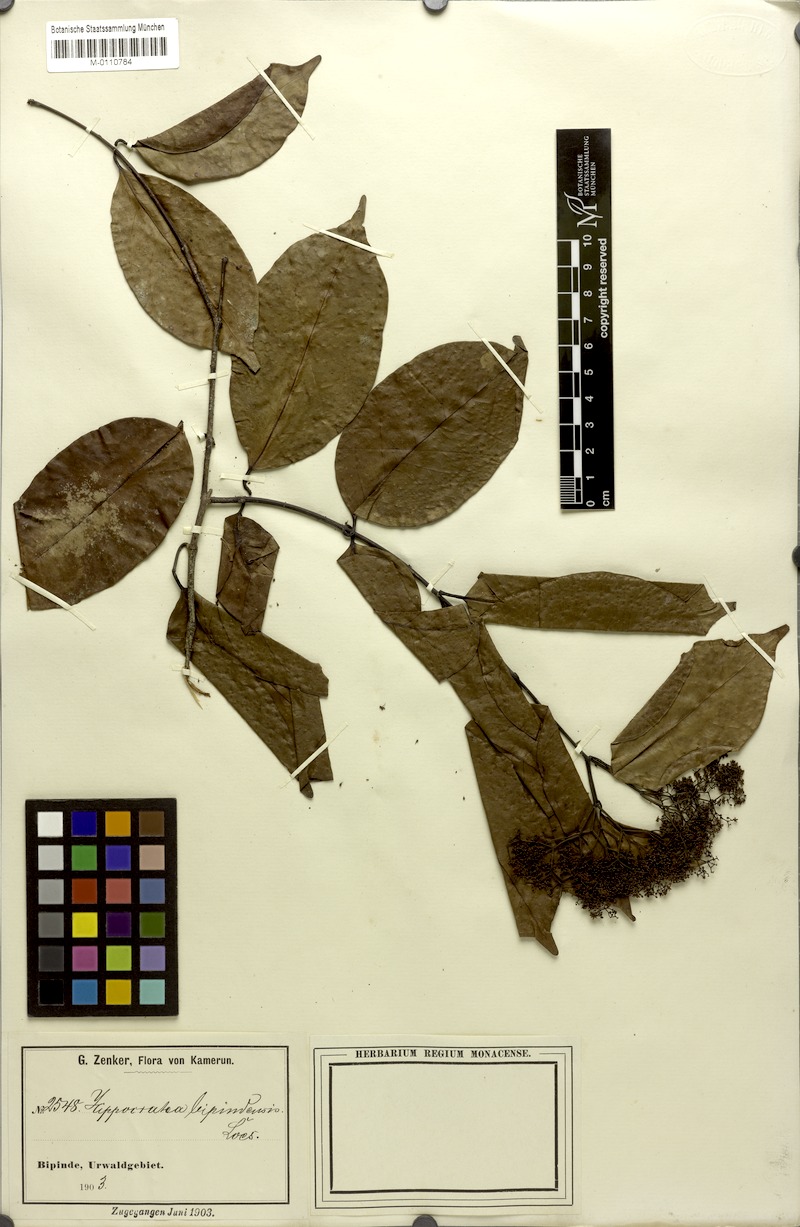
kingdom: Plantae
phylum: Tracheophyta
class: Magnoliopsida
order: Celastrales
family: Celastraceae
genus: Elachyptera
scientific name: Elachyptera bipindensis
